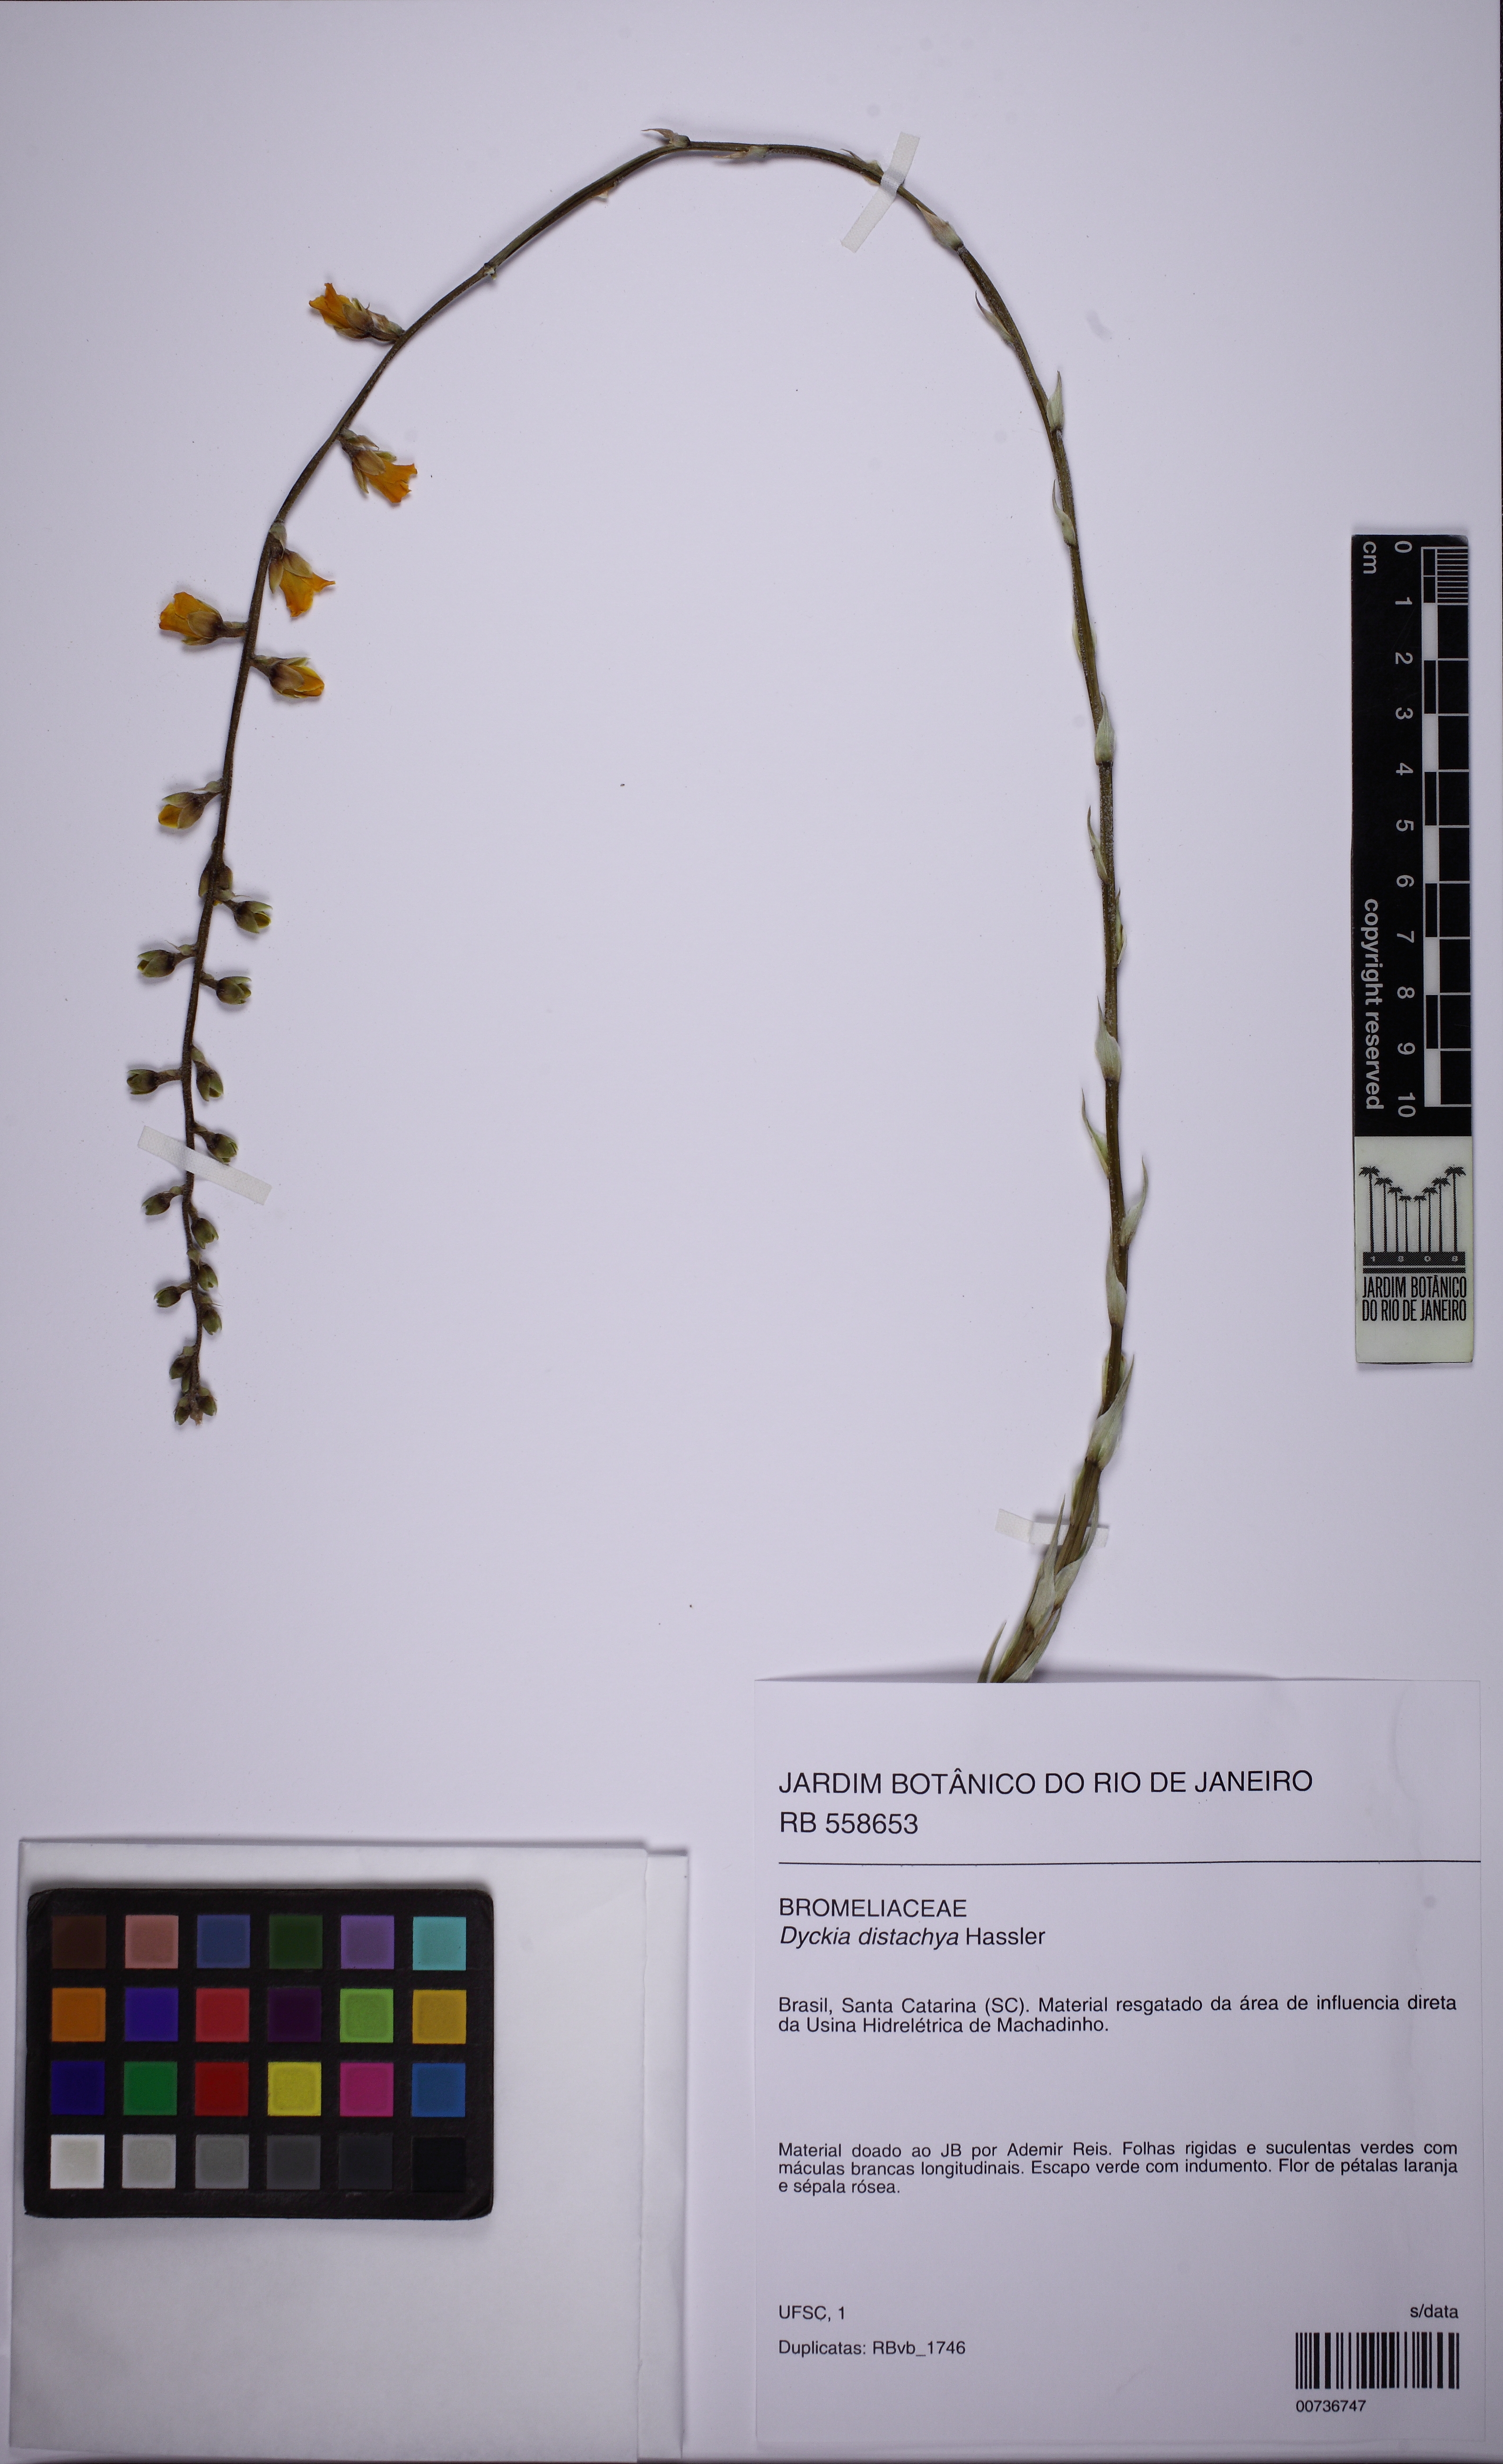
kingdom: Plantae
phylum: Tracheophyta
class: Liliopsida
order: Poales
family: Bromeliaceae
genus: Dyckia
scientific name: Dyckia distachya
